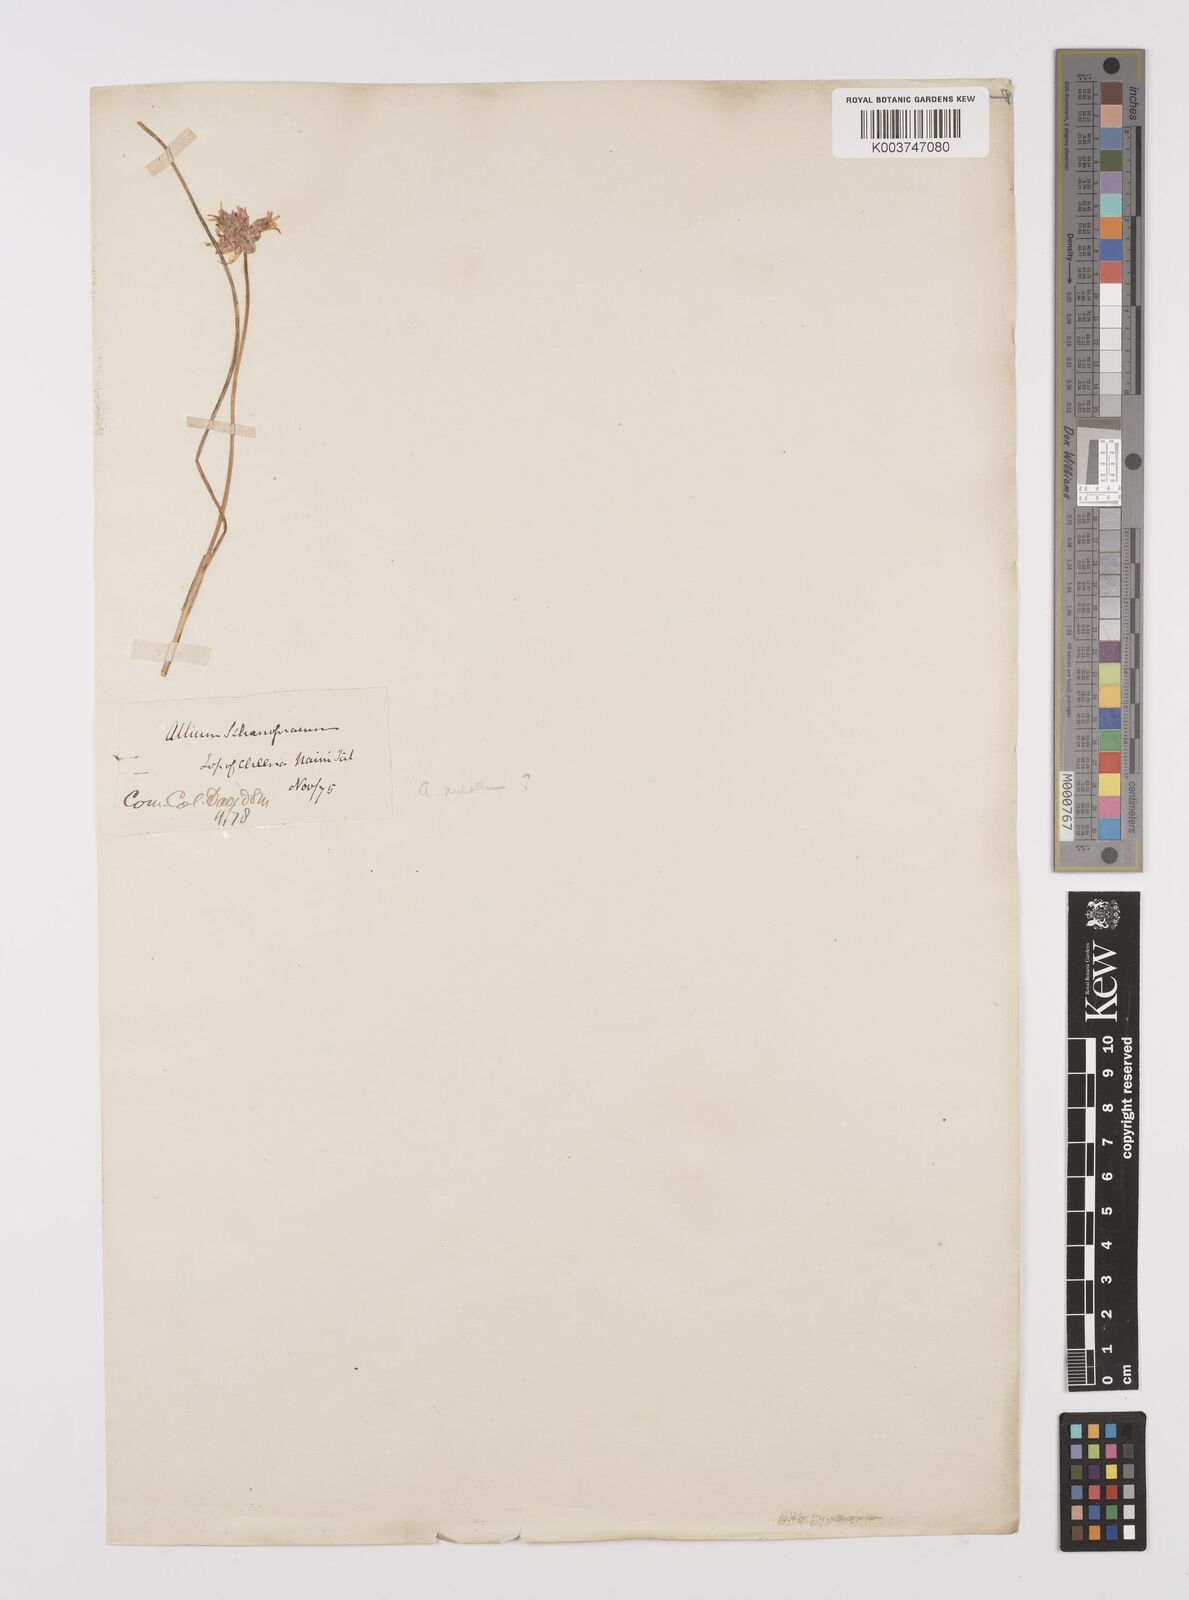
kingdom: Plantae
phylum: Tracheophyta
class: Liliopsida
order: Asparagales
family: Amaryllidaceae
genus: Allium
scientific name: Allium rubellum
